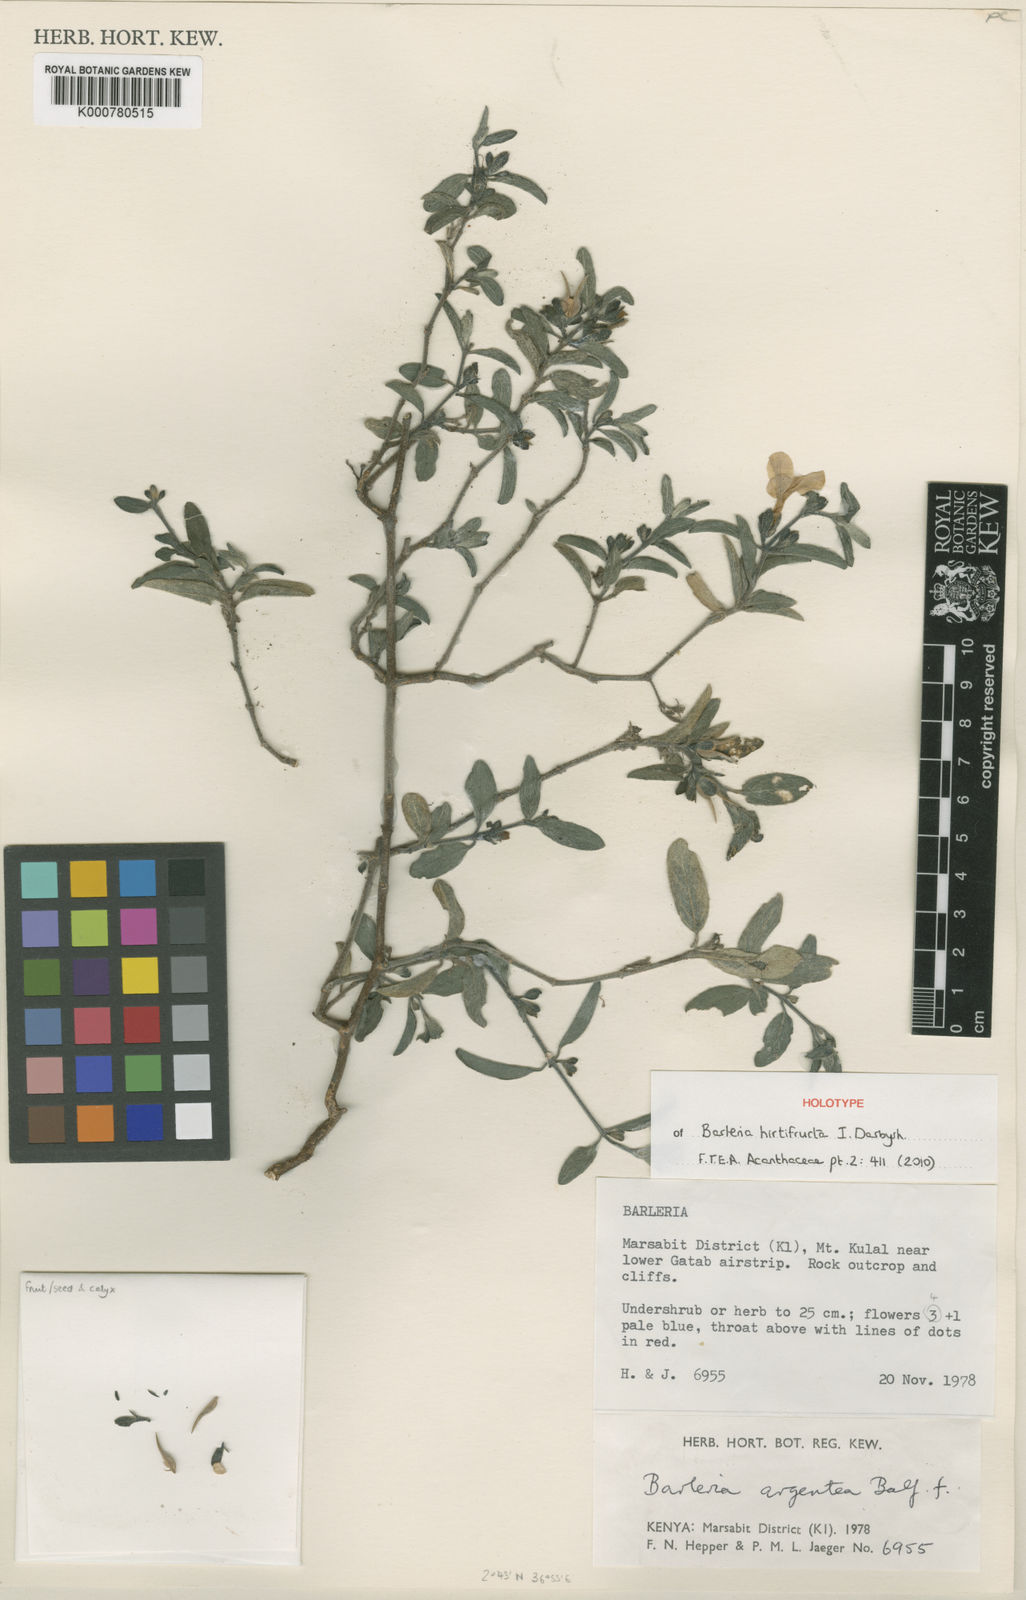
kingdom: Plantae
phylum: Tracheophyta
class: Magnoliopsida
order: Lamiales
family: Acanthaceae
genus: Barleria
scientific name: Barleria hirtifructa
